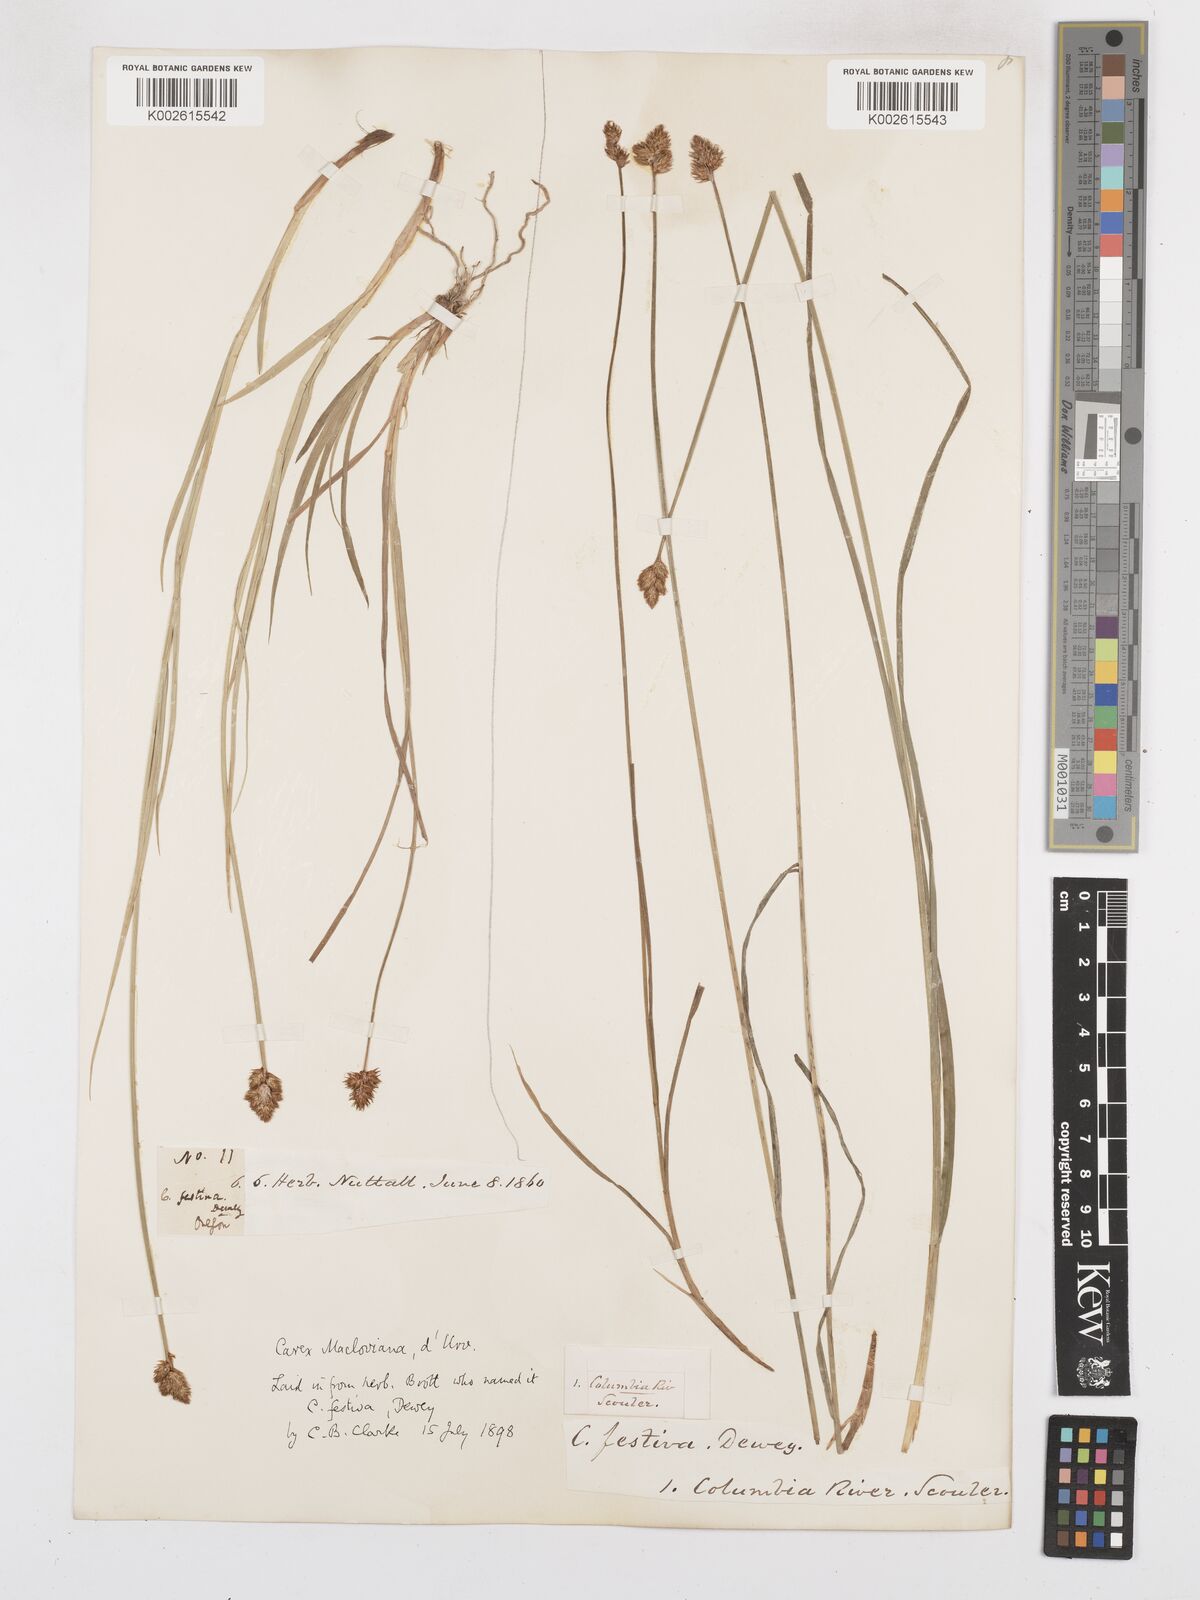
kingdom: Plantae
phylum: Tracheophyta
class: Liliopsida
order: Poales
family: Cyperaceae
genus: Carex
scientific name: Carex subfusca
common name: Brown sedge
